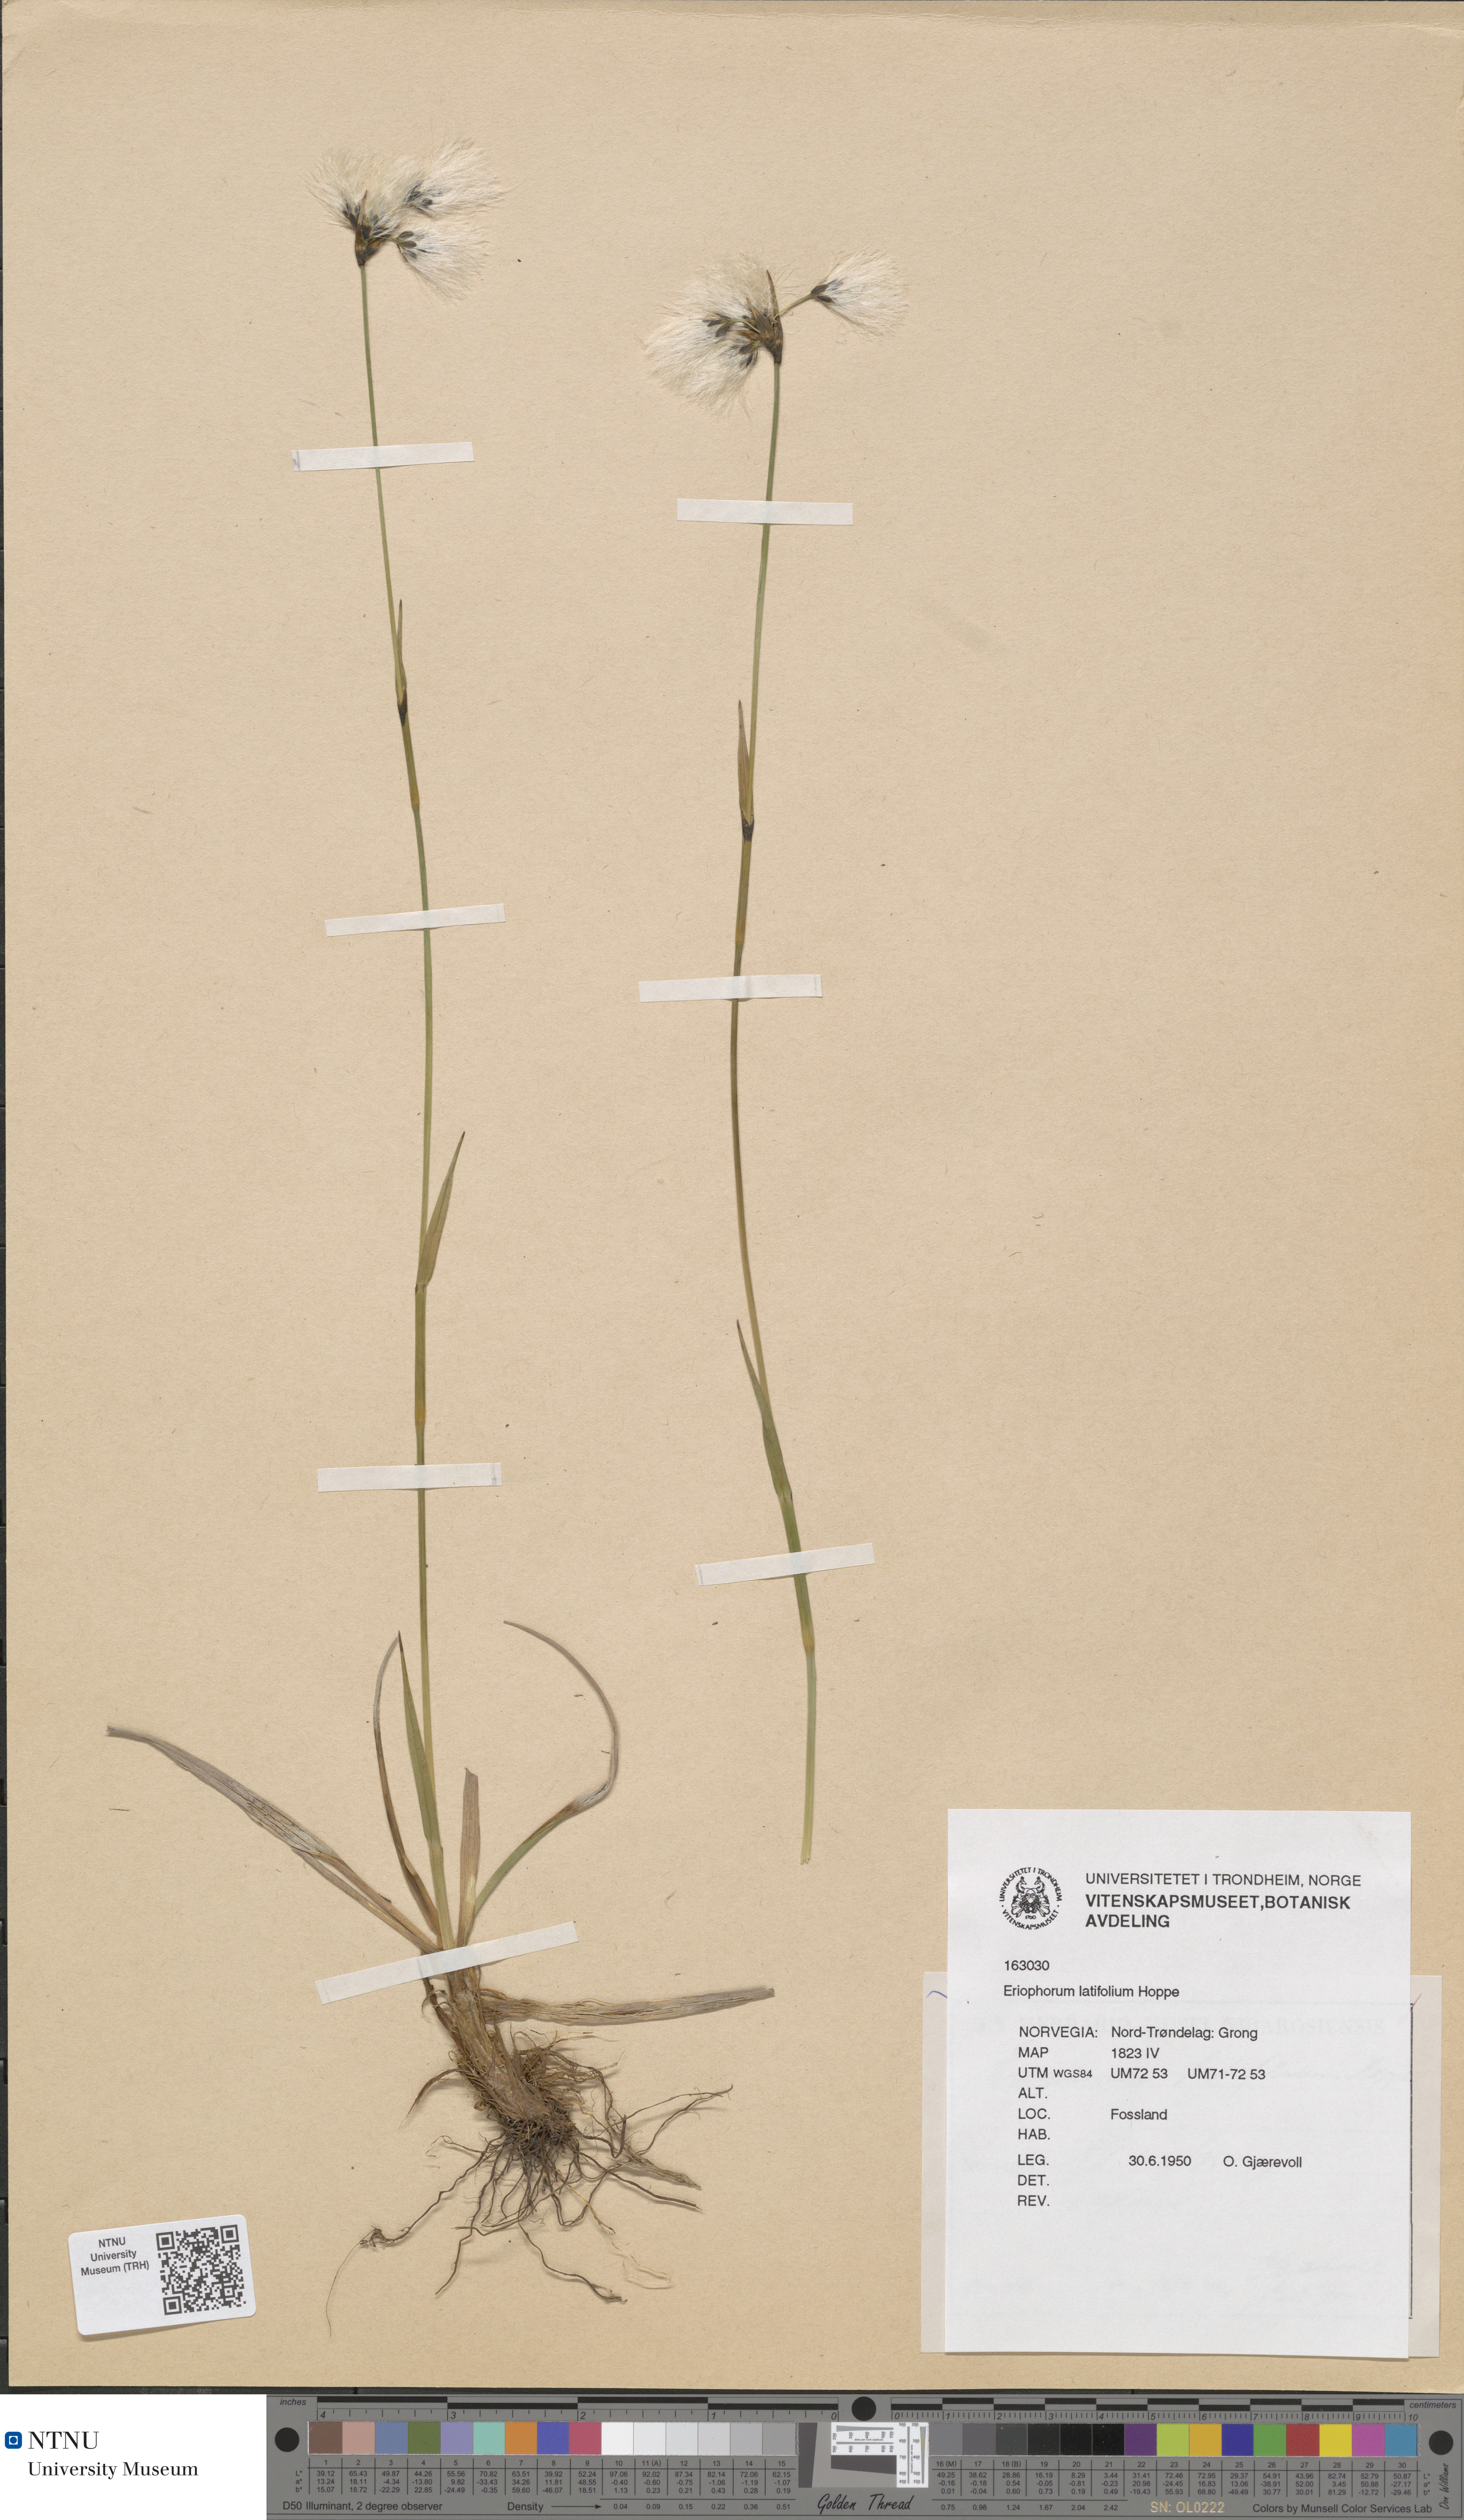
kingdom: Plantae
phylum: Tracheophyta
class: Liliopsida
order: Poales
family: Cyperaceae
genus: Eriophorum
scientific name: Eriophorum latifolium
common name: Broad-leaved cottongrass
